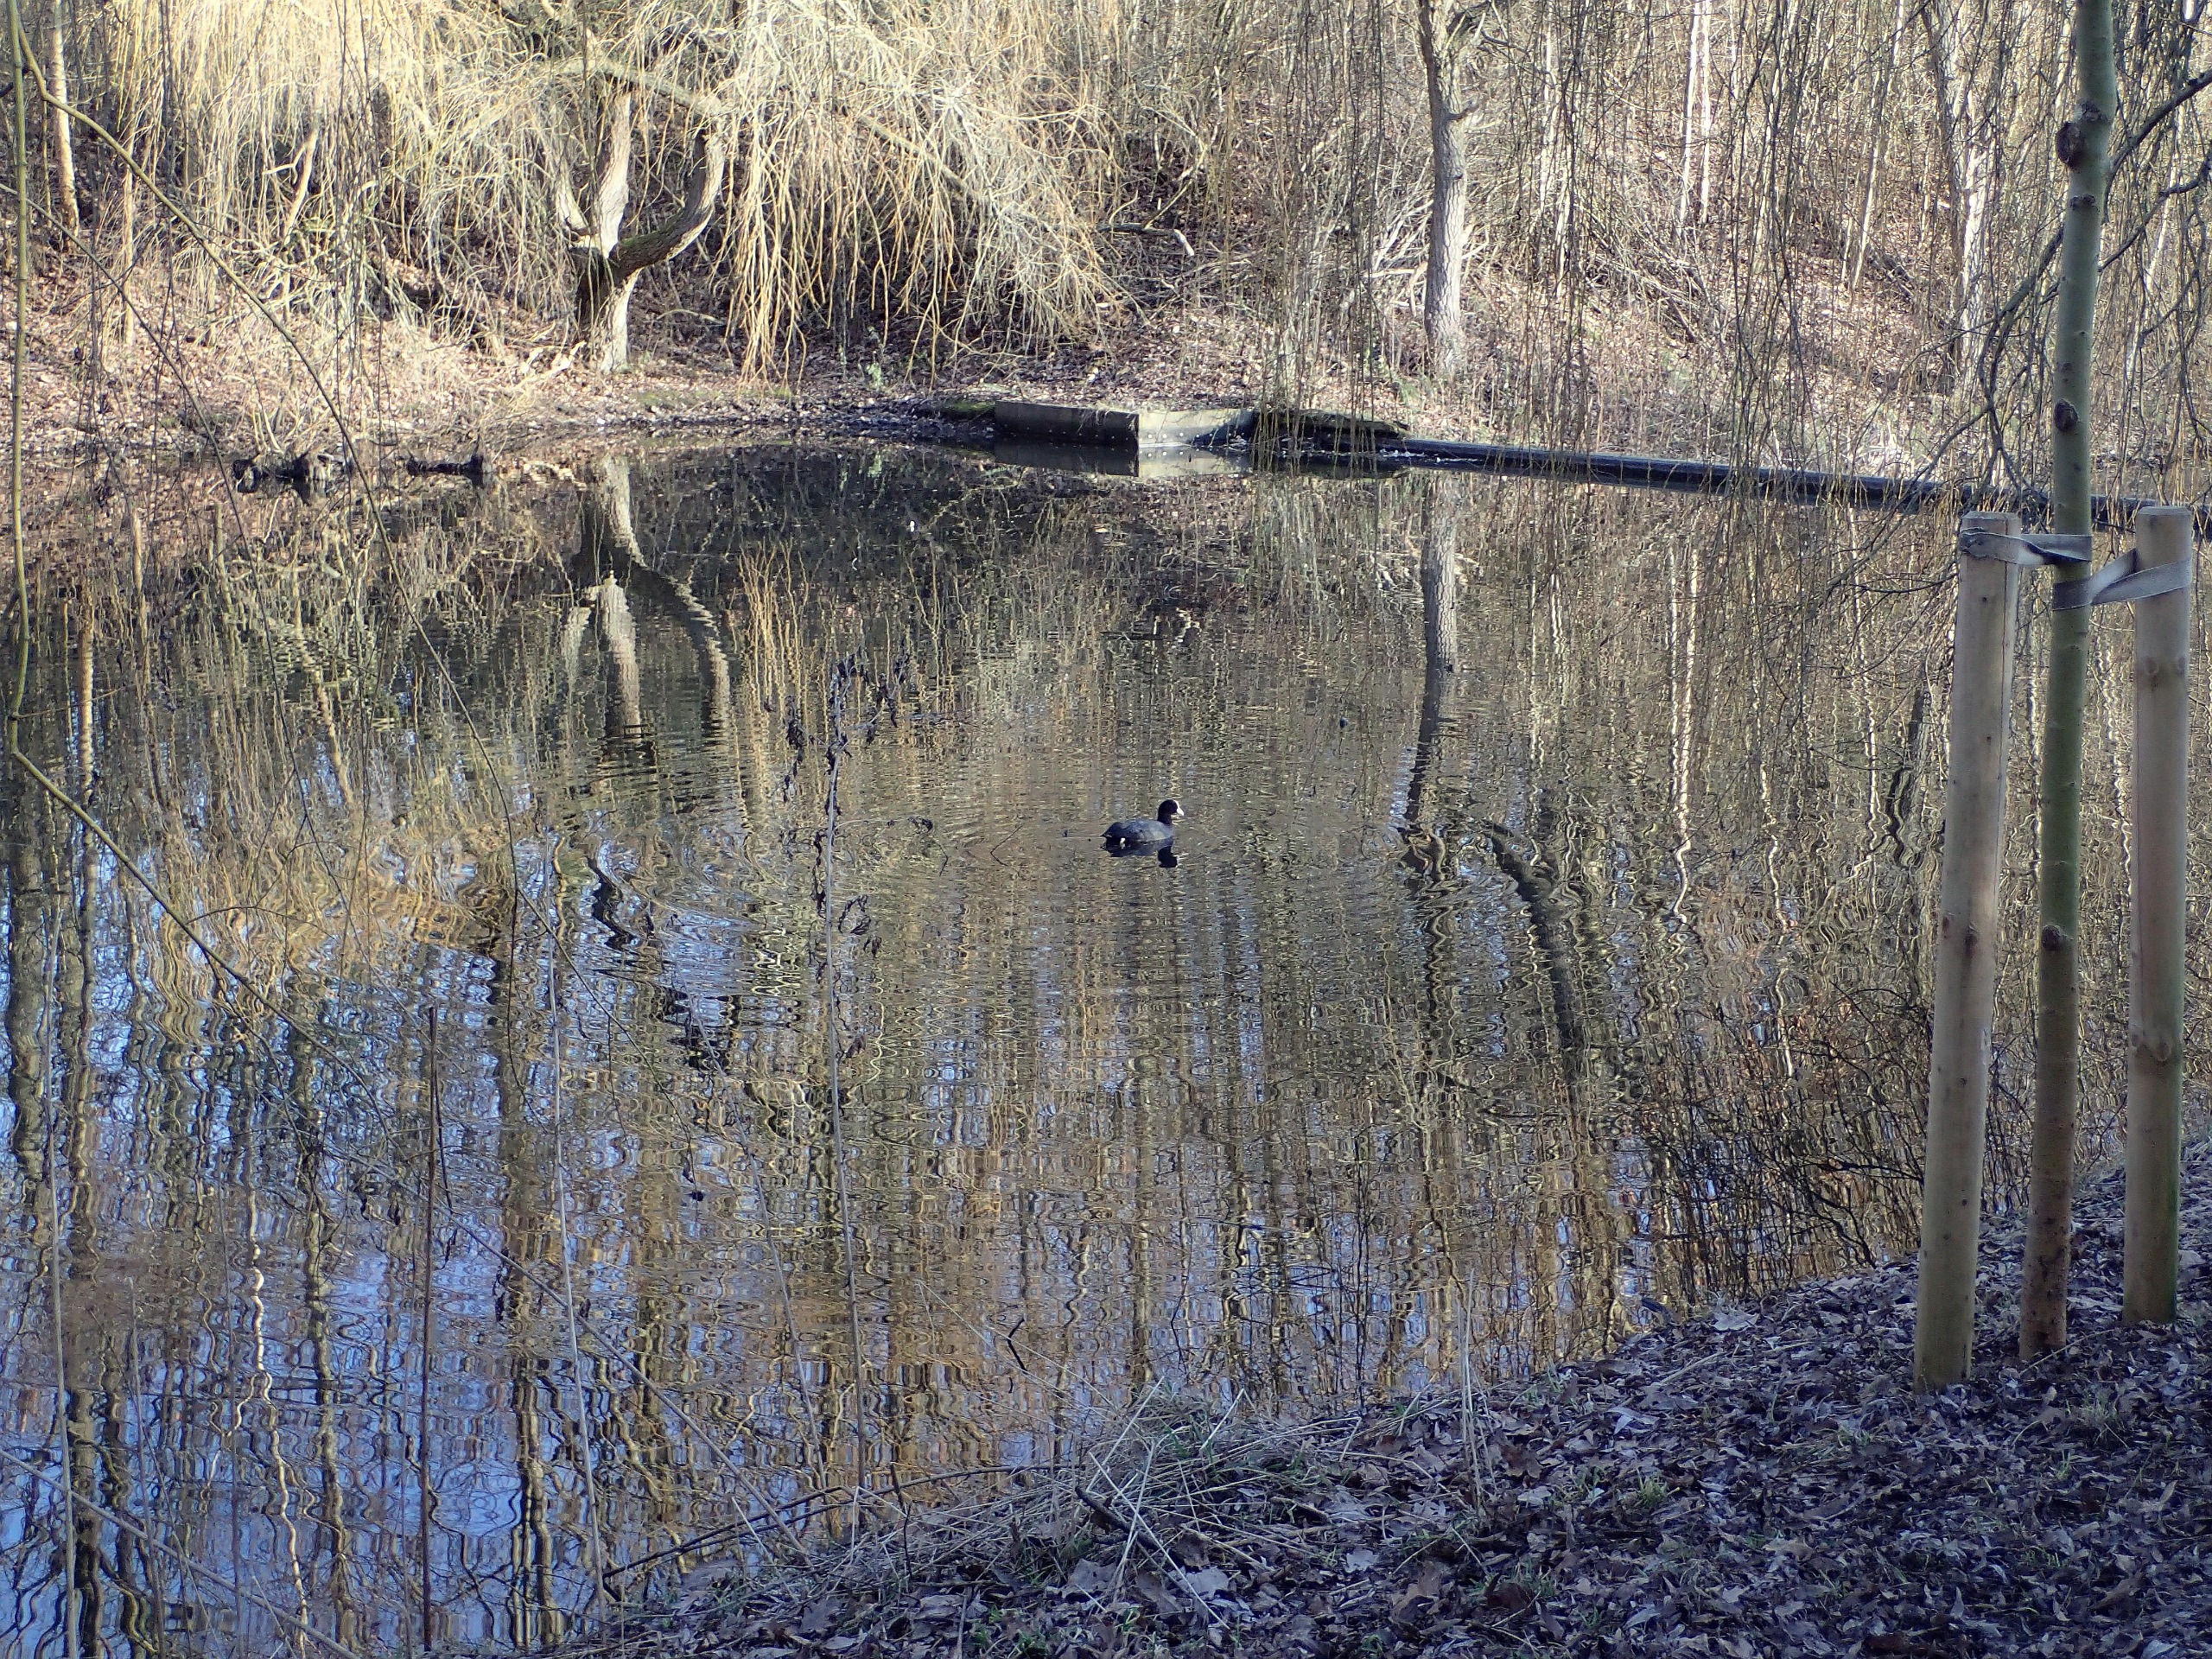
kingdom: Animalia
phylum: Chordata
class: Aves
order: Gruiformes
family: Rallidae
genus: Fulica
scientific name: Fulica atra
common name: Blishøne
